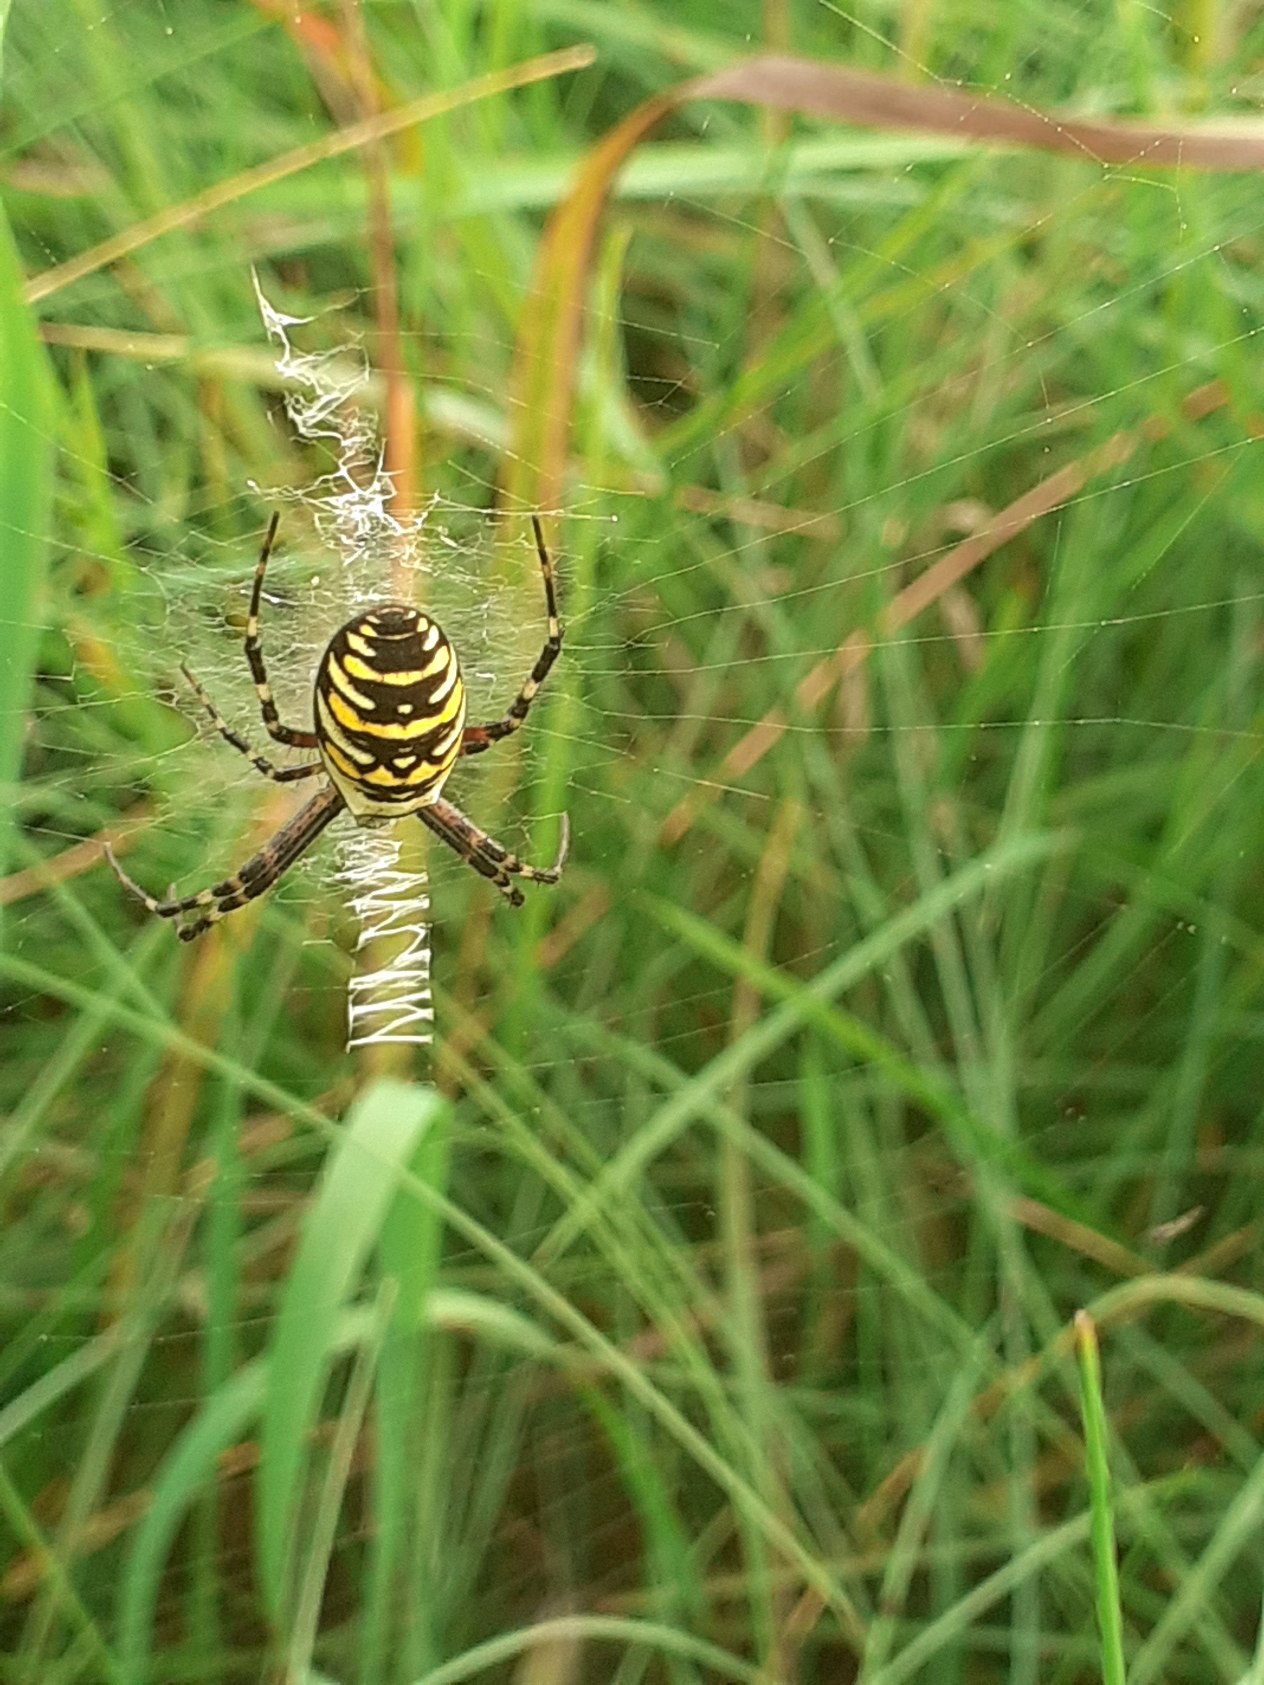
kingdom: Animalia
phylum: Arthropoda
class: Arachnida
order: Araneae
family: Araneidae
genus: Argiope
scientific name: Argiope bruennichi
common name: Hvepseedderkop
